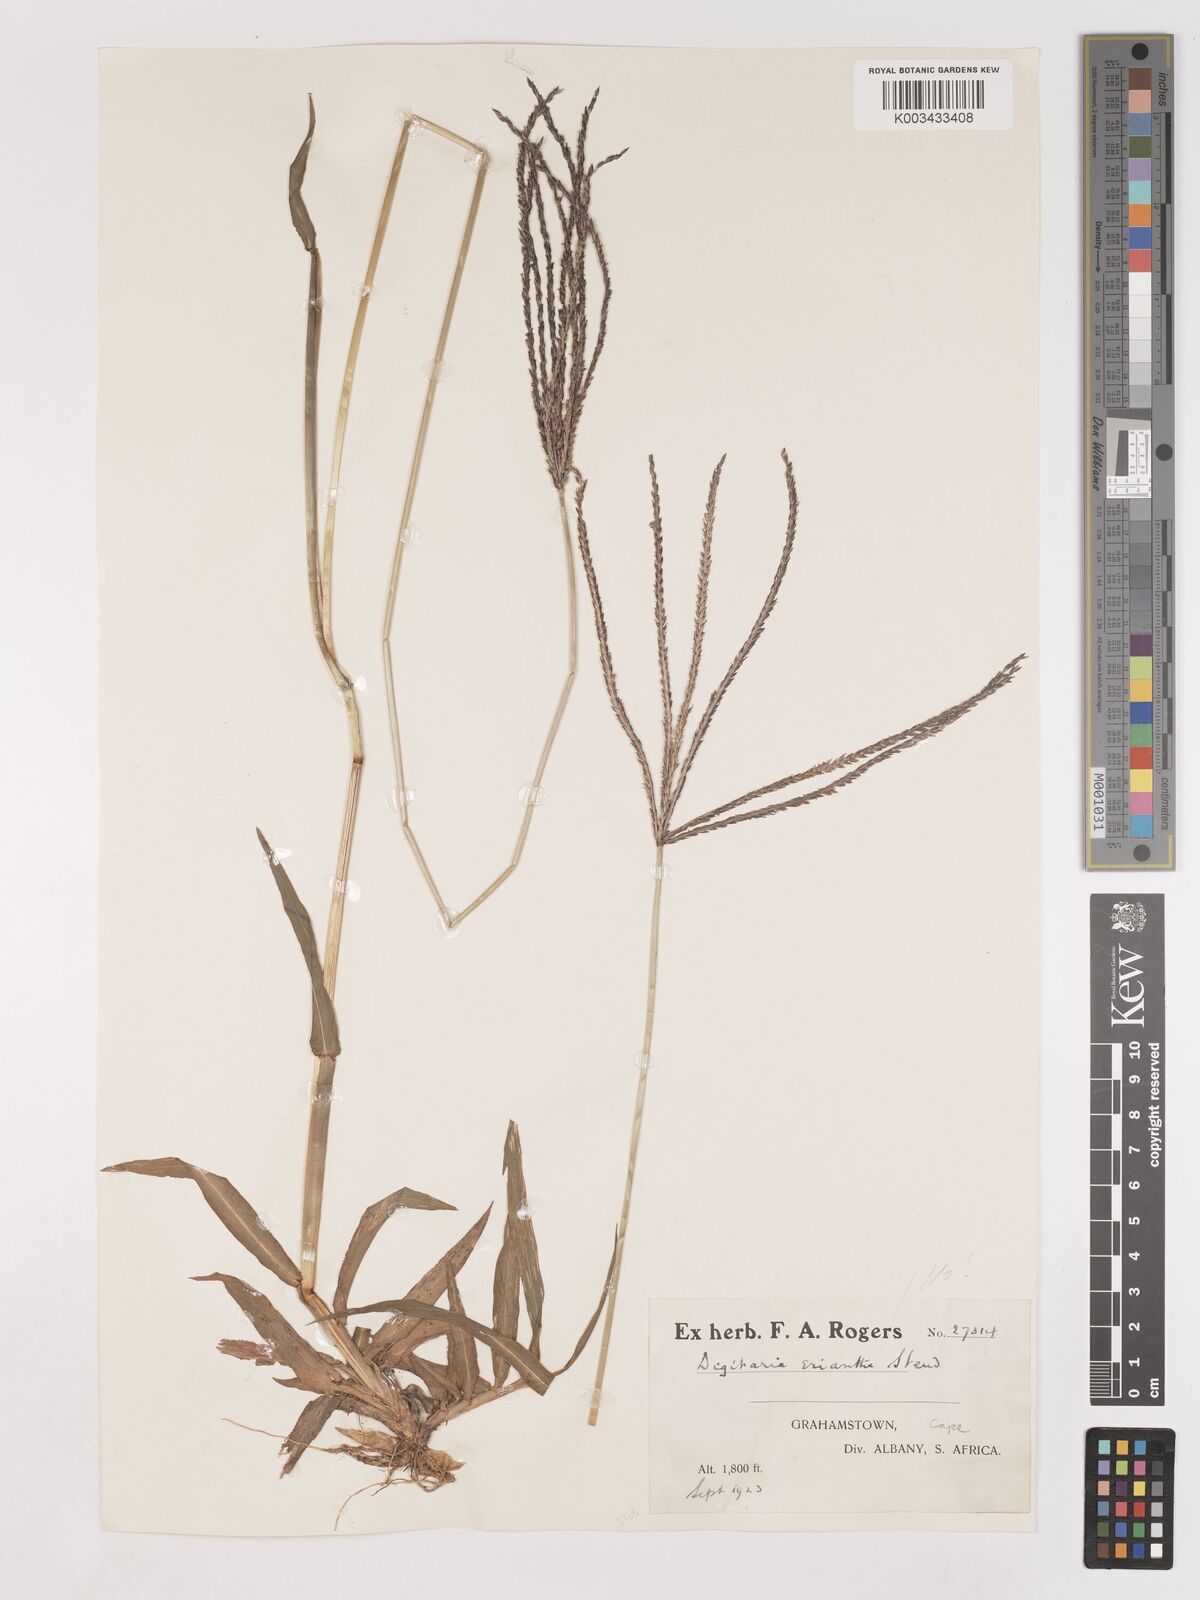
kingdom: Plantae
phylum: Tracheophyta
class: Liliopsida
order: Poales
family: Poaceae
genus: Digitaria
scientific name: Digitaria eriantha
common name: Digitgrass
